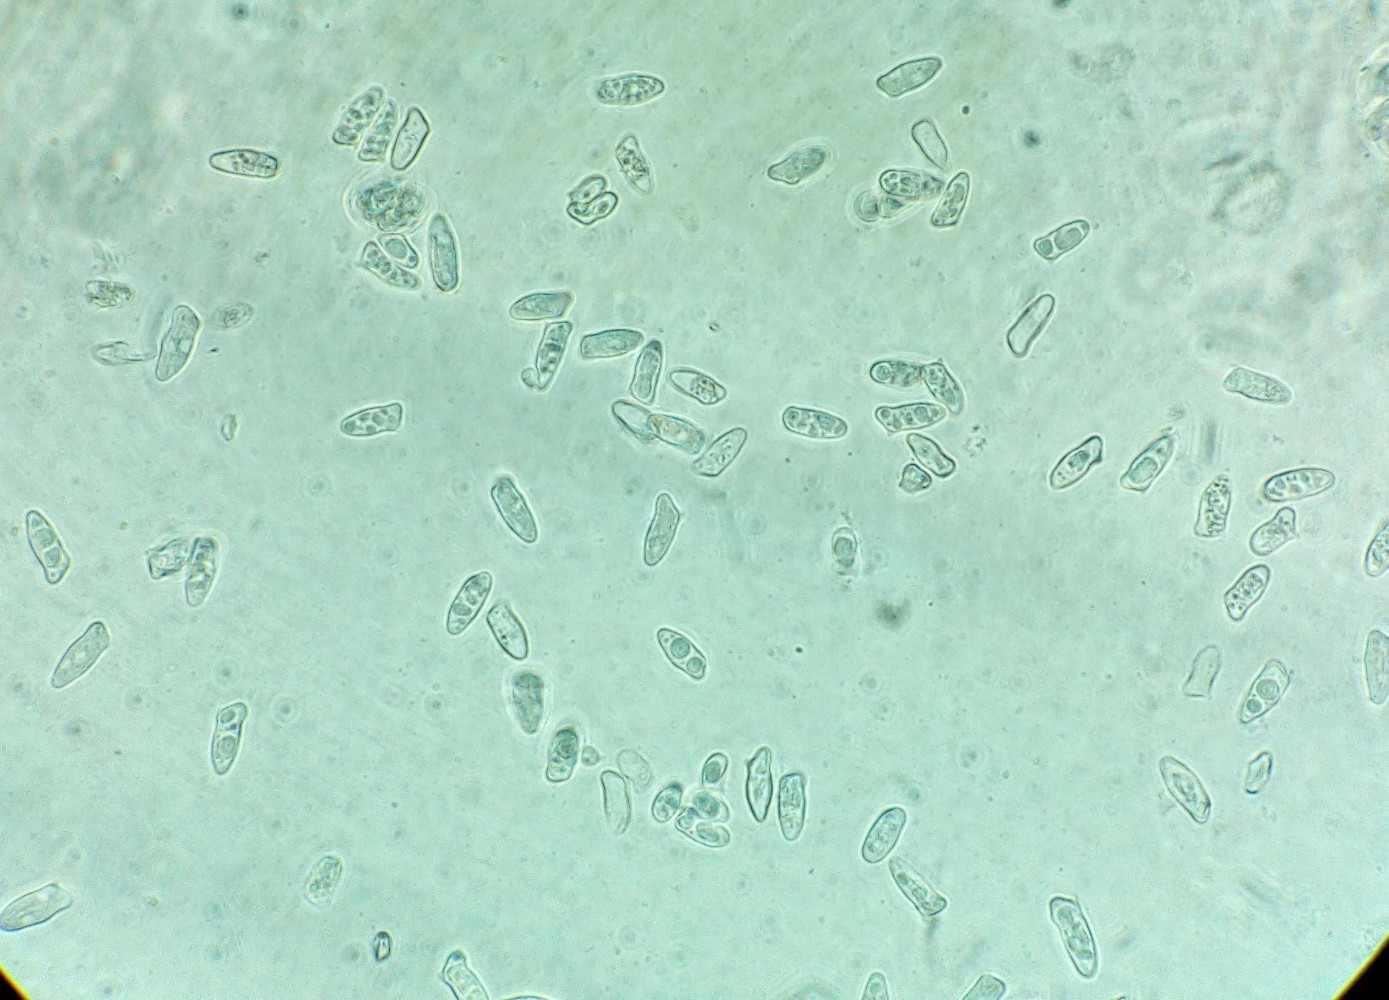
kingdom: Fungi
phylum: Basidiomycota
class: Agaricomycetes
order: Agaricales
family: Agaricaceae
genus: Lepiota
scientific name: Lepiota cingulum
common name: guirlande-parasolhat
